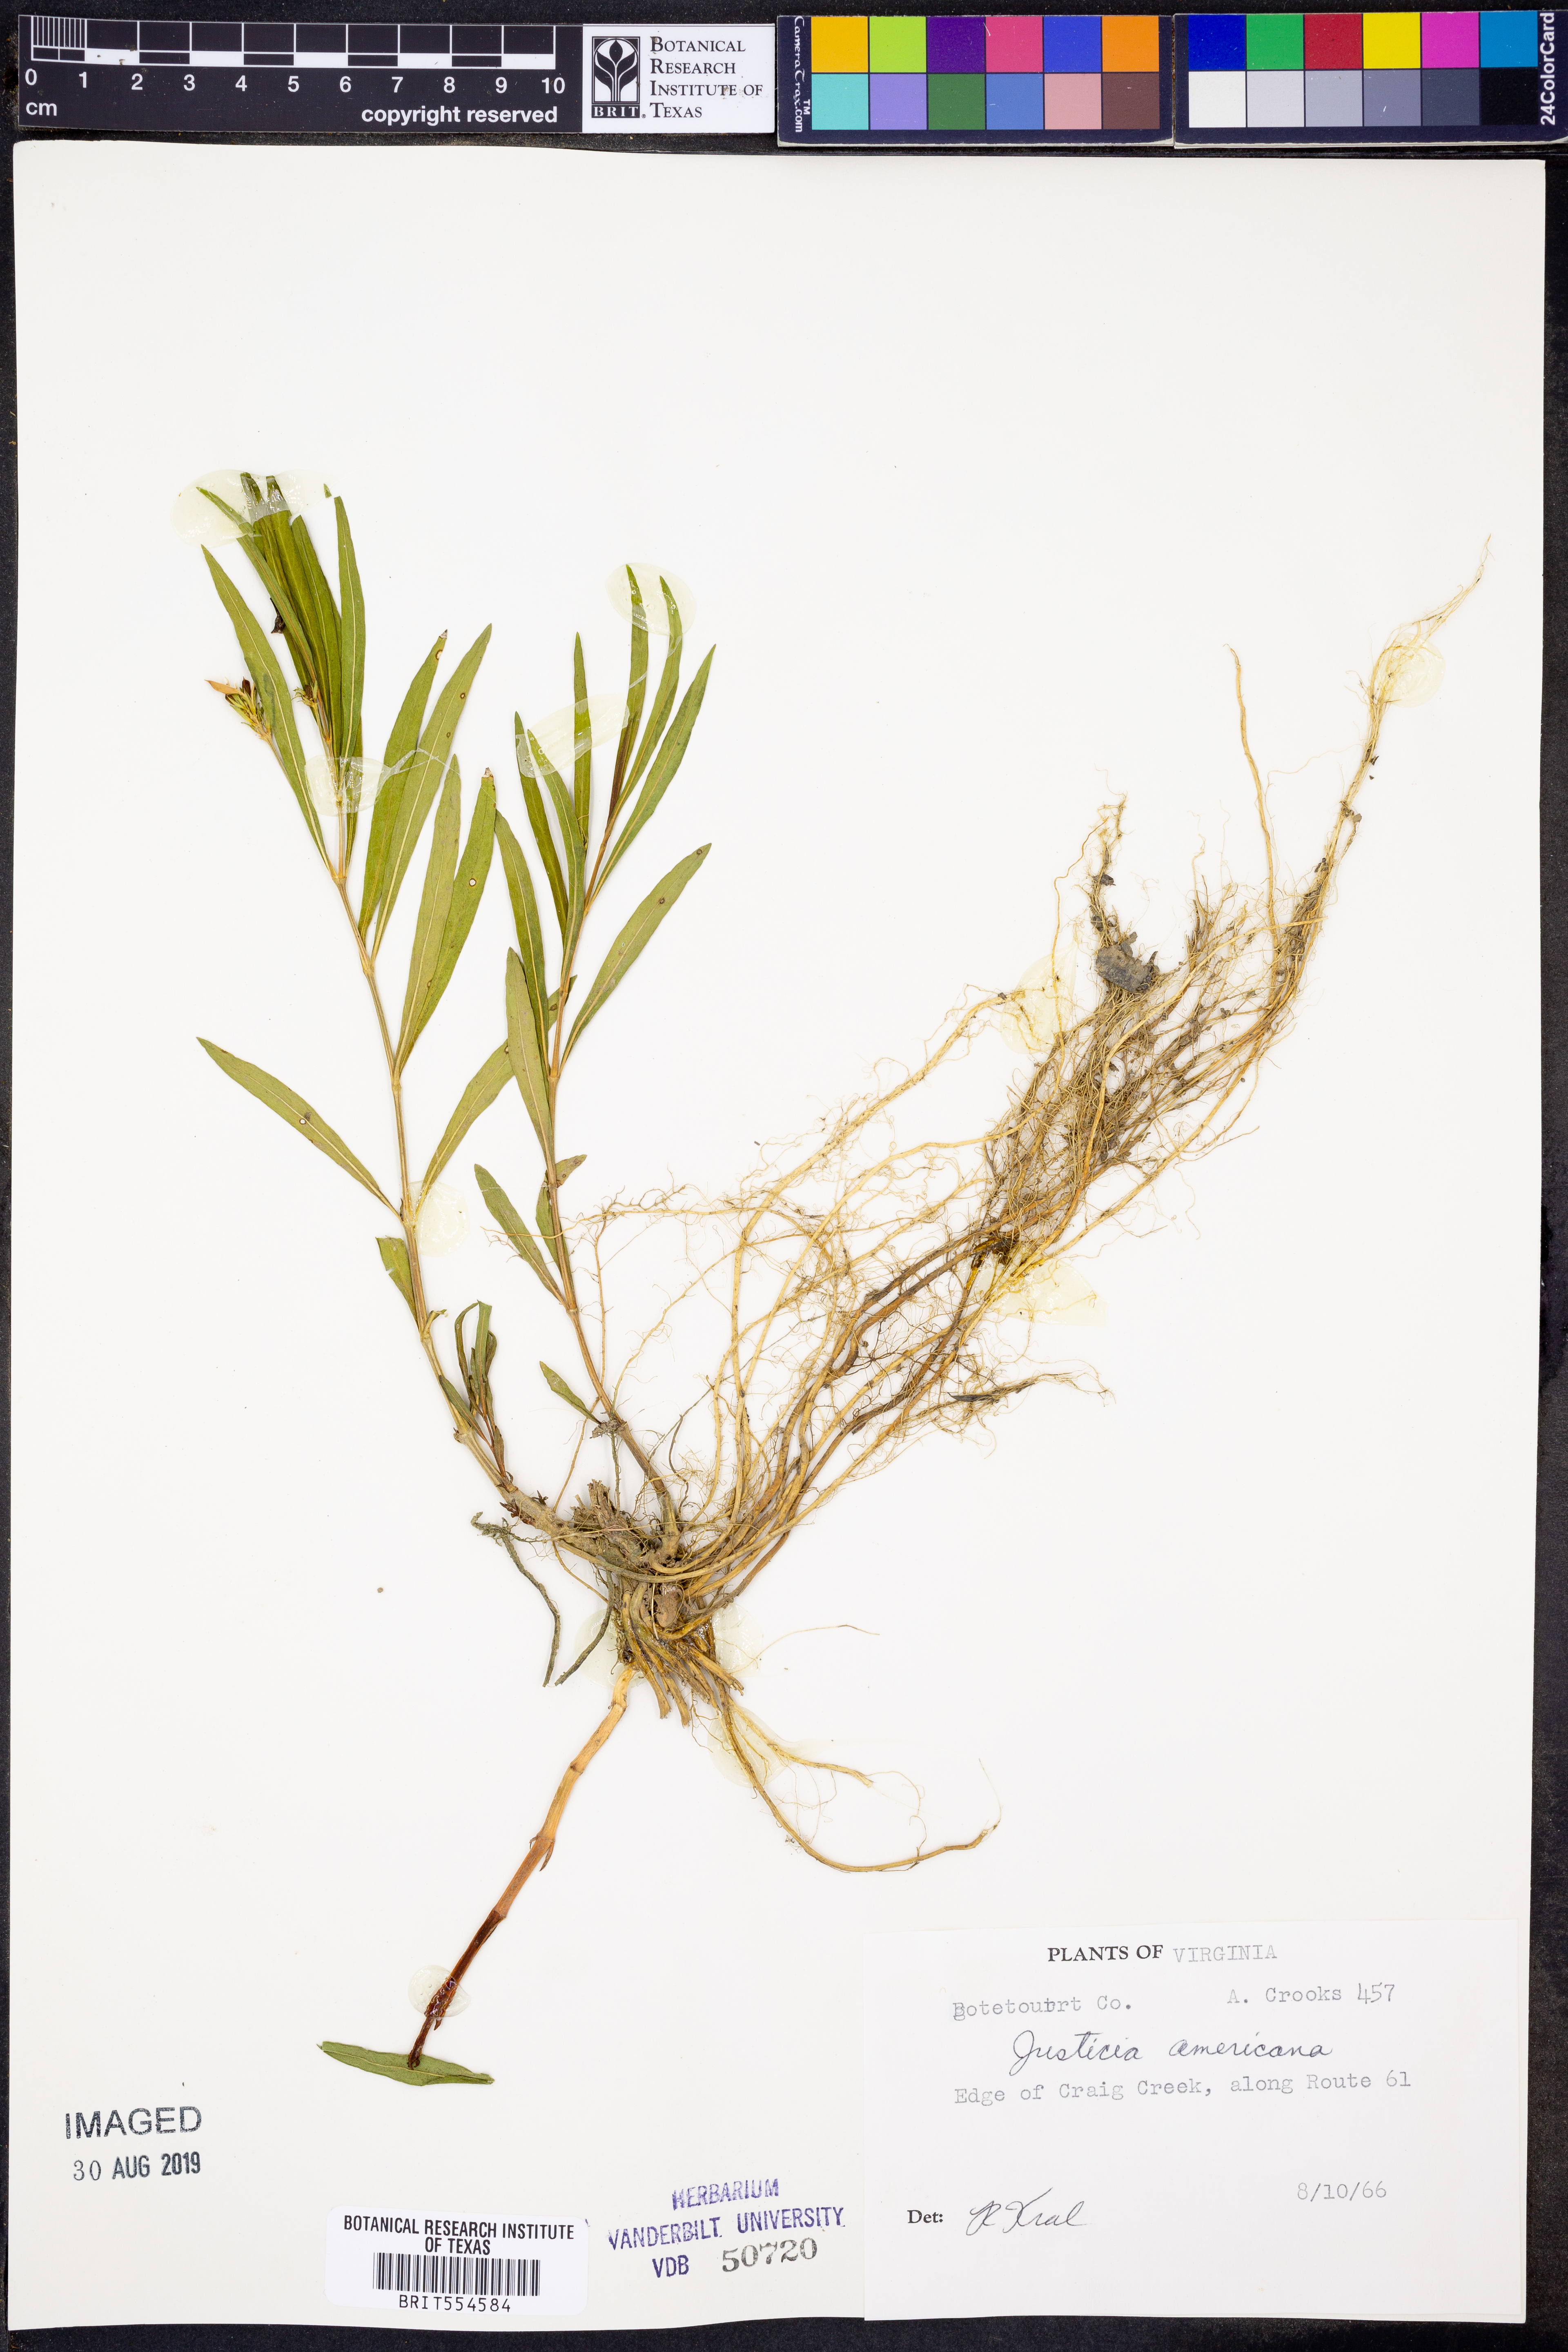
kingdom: Plantae
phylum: Tracheophyta
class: Magnoliopsida
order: Lamiales
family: Acanthaceae
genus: Dianthera
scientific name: Dianthera americana
